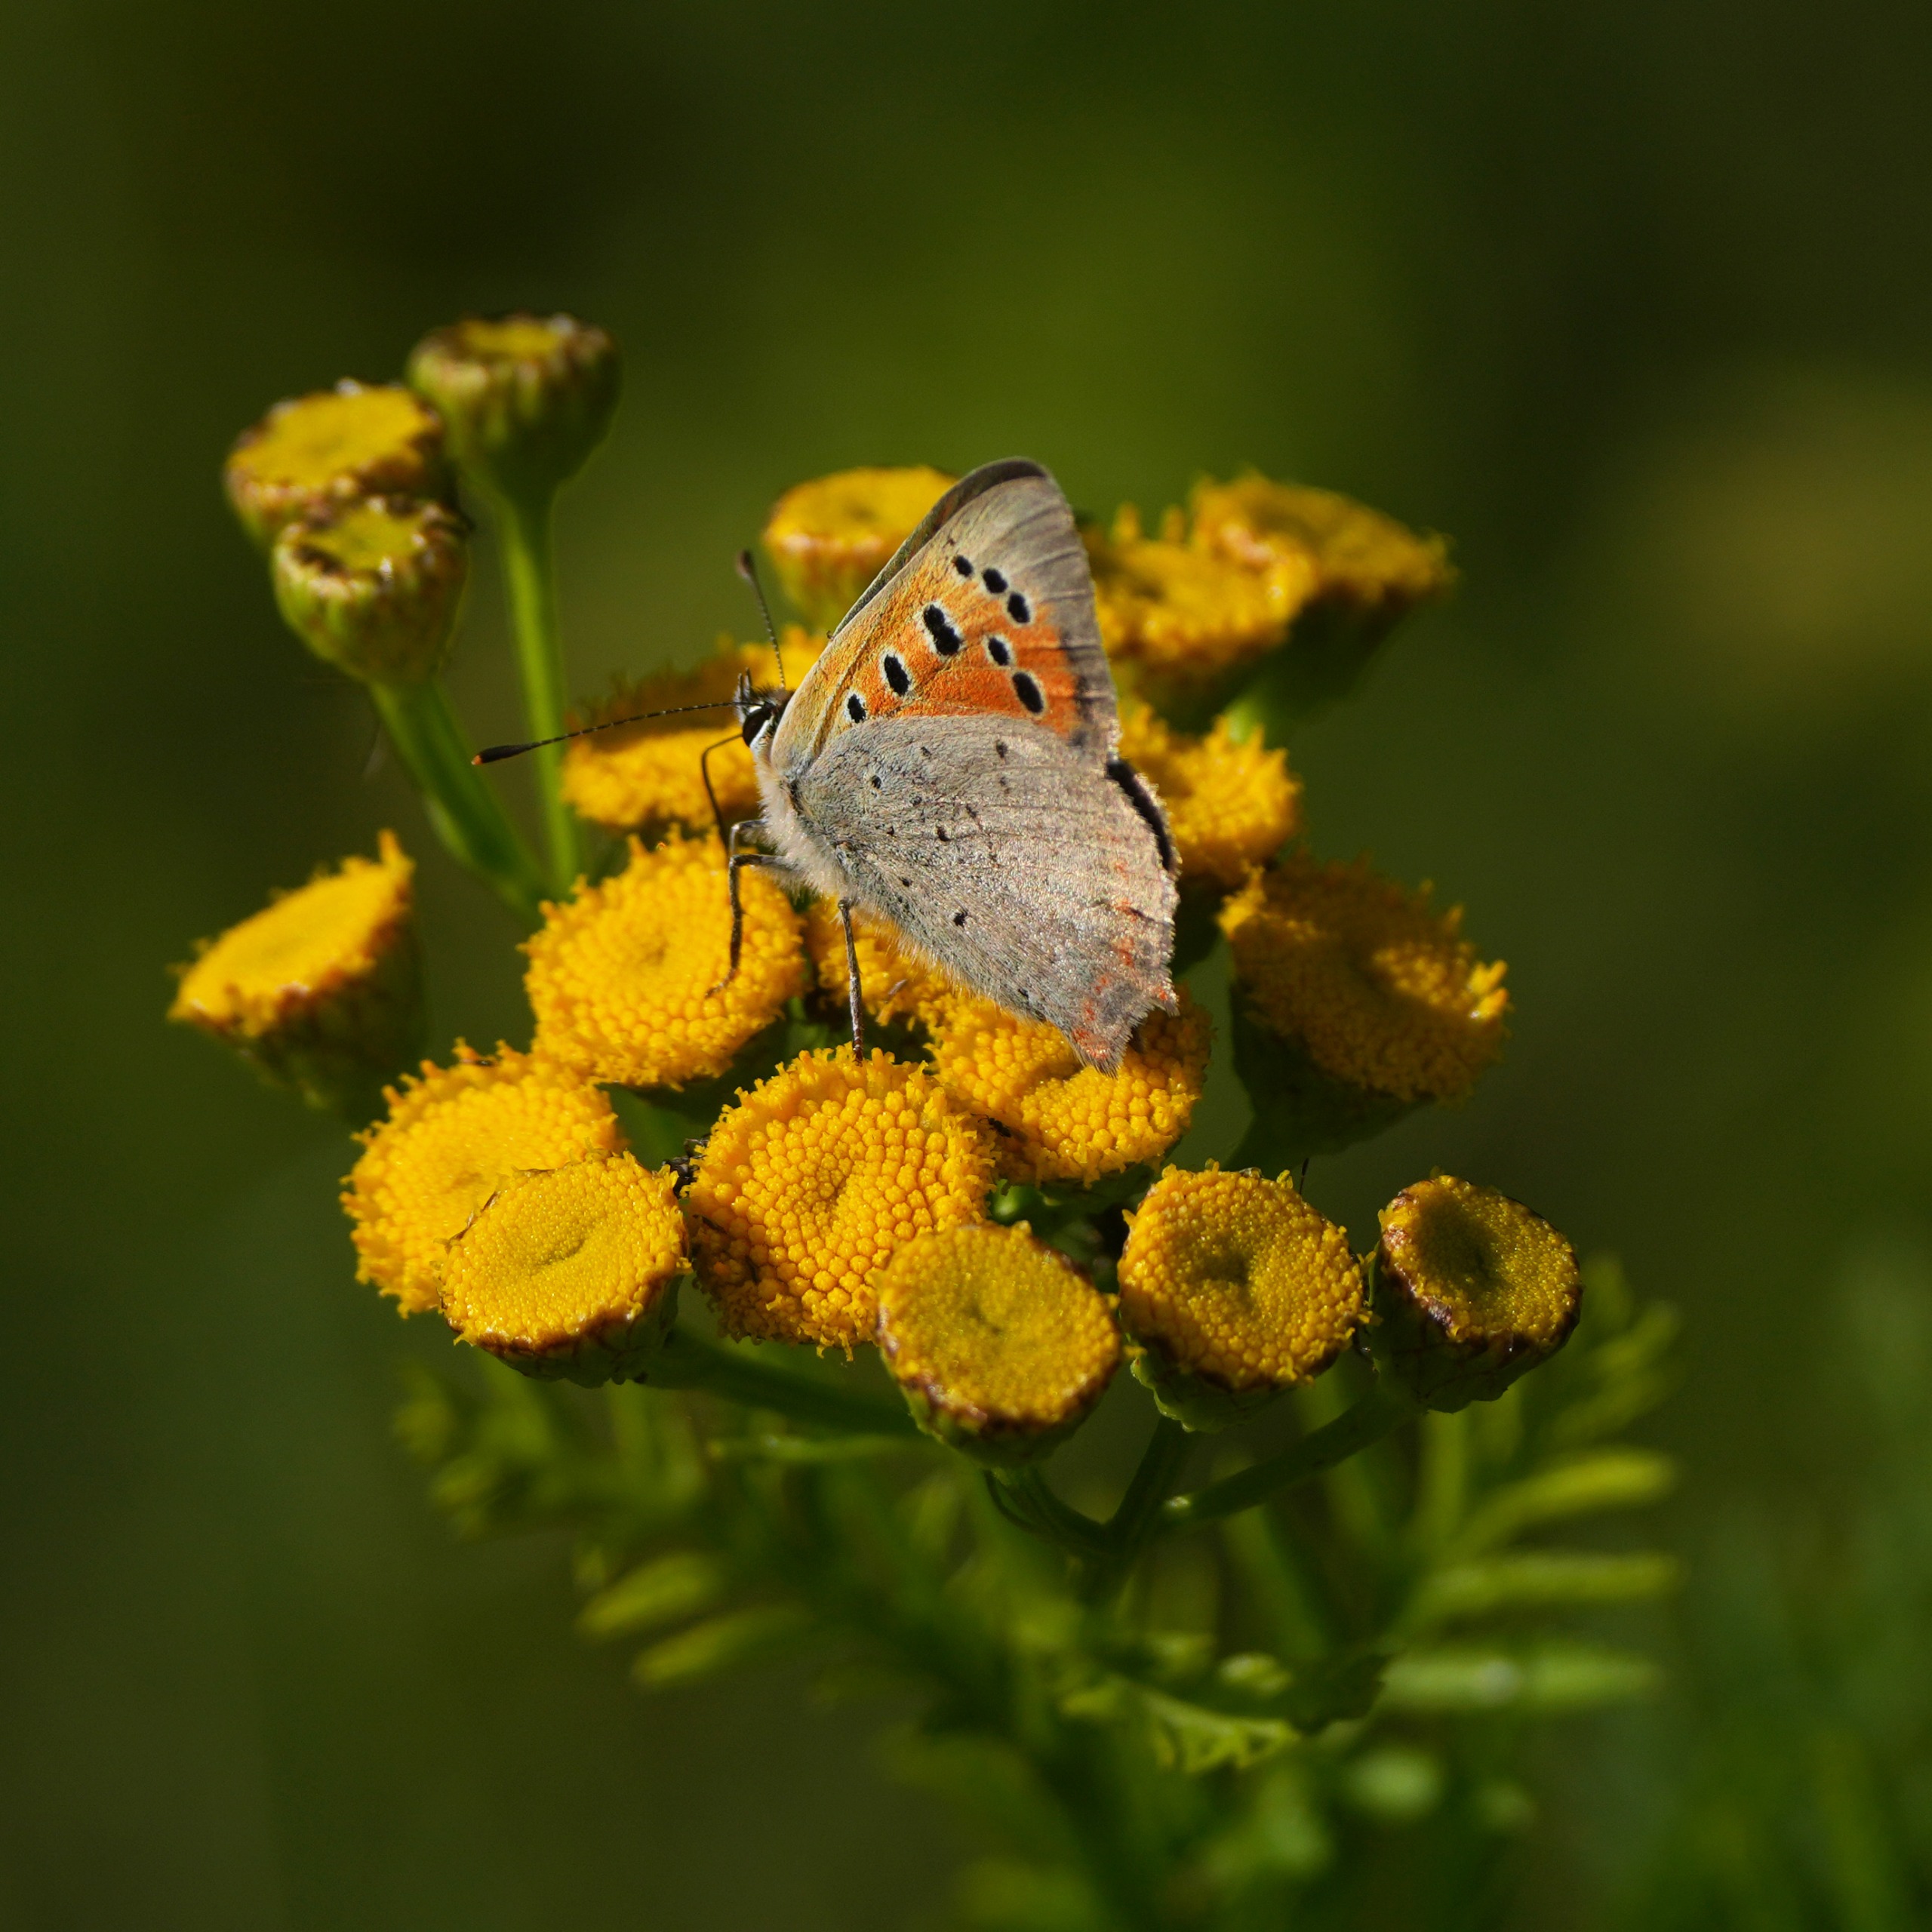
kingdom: Animalia
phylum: Arthropoda
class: Insecta
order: Lepidoptera
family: Lycaenidae
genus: Lycaena
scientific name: Lycaena phlaeas
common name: Lille ildfugl
